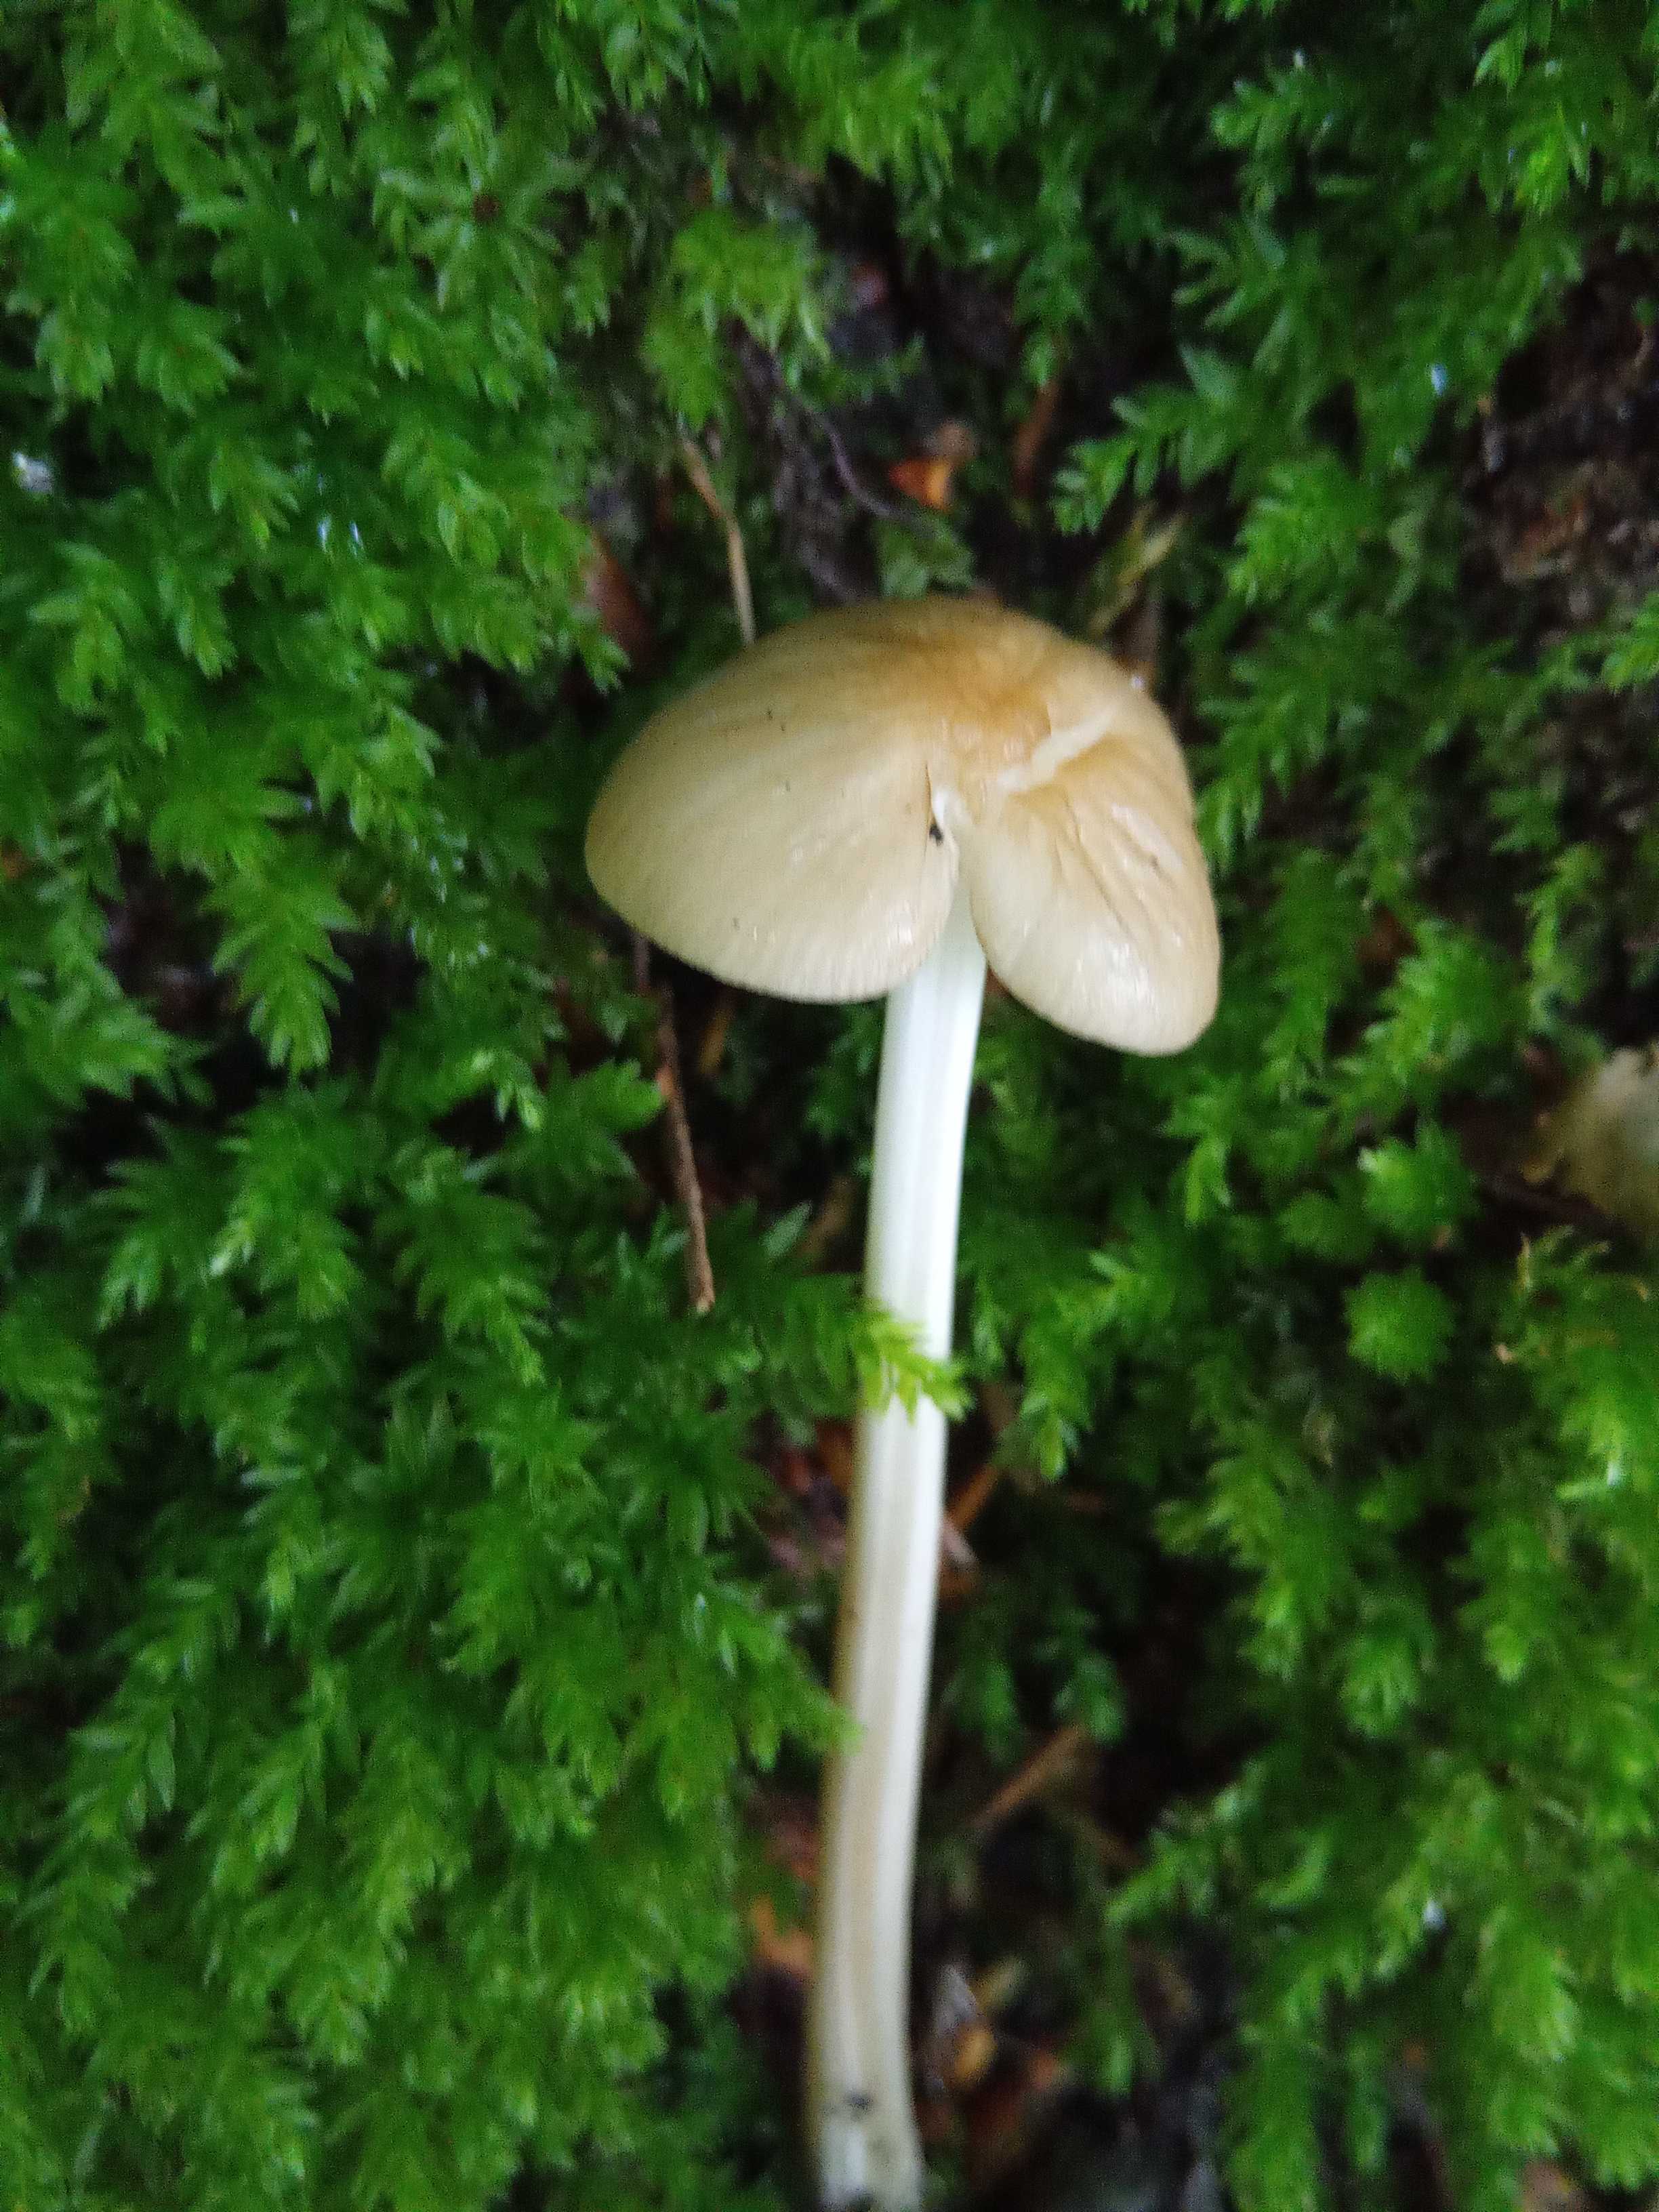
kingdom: Fungi
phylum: Basidiomycota
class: Agaricomycetes
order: Agaricales
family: Physalacriaceae
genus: Hymenopellis
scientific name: Hymenopellis radicata
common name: almindelig pælerodshat
